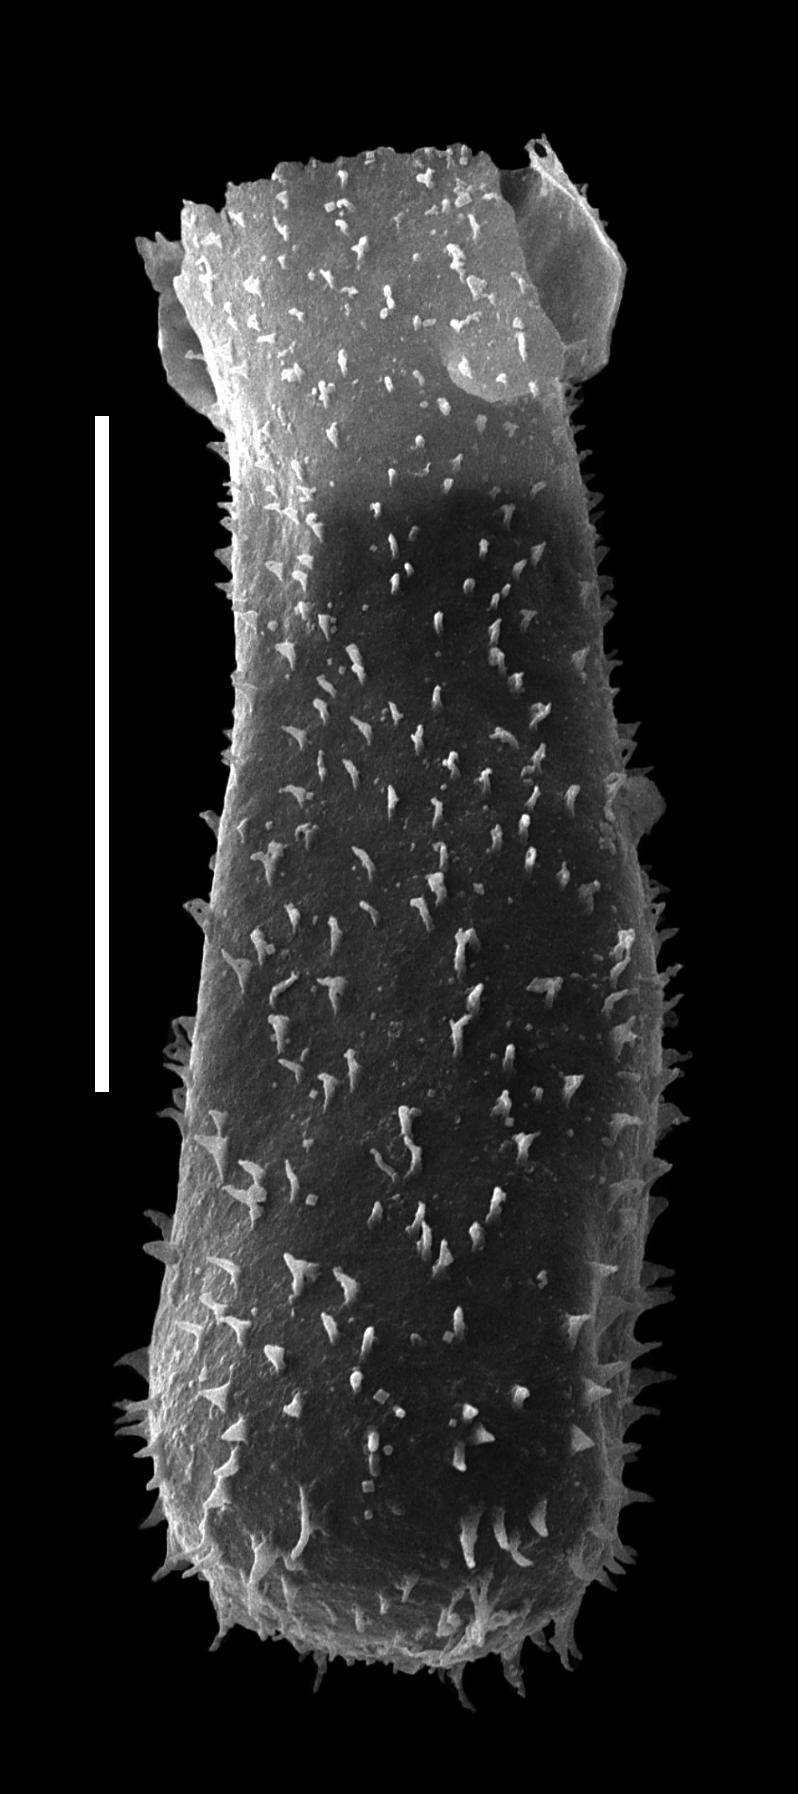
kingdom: Protozoa
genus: Belonechitina
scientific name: Belonechitina
